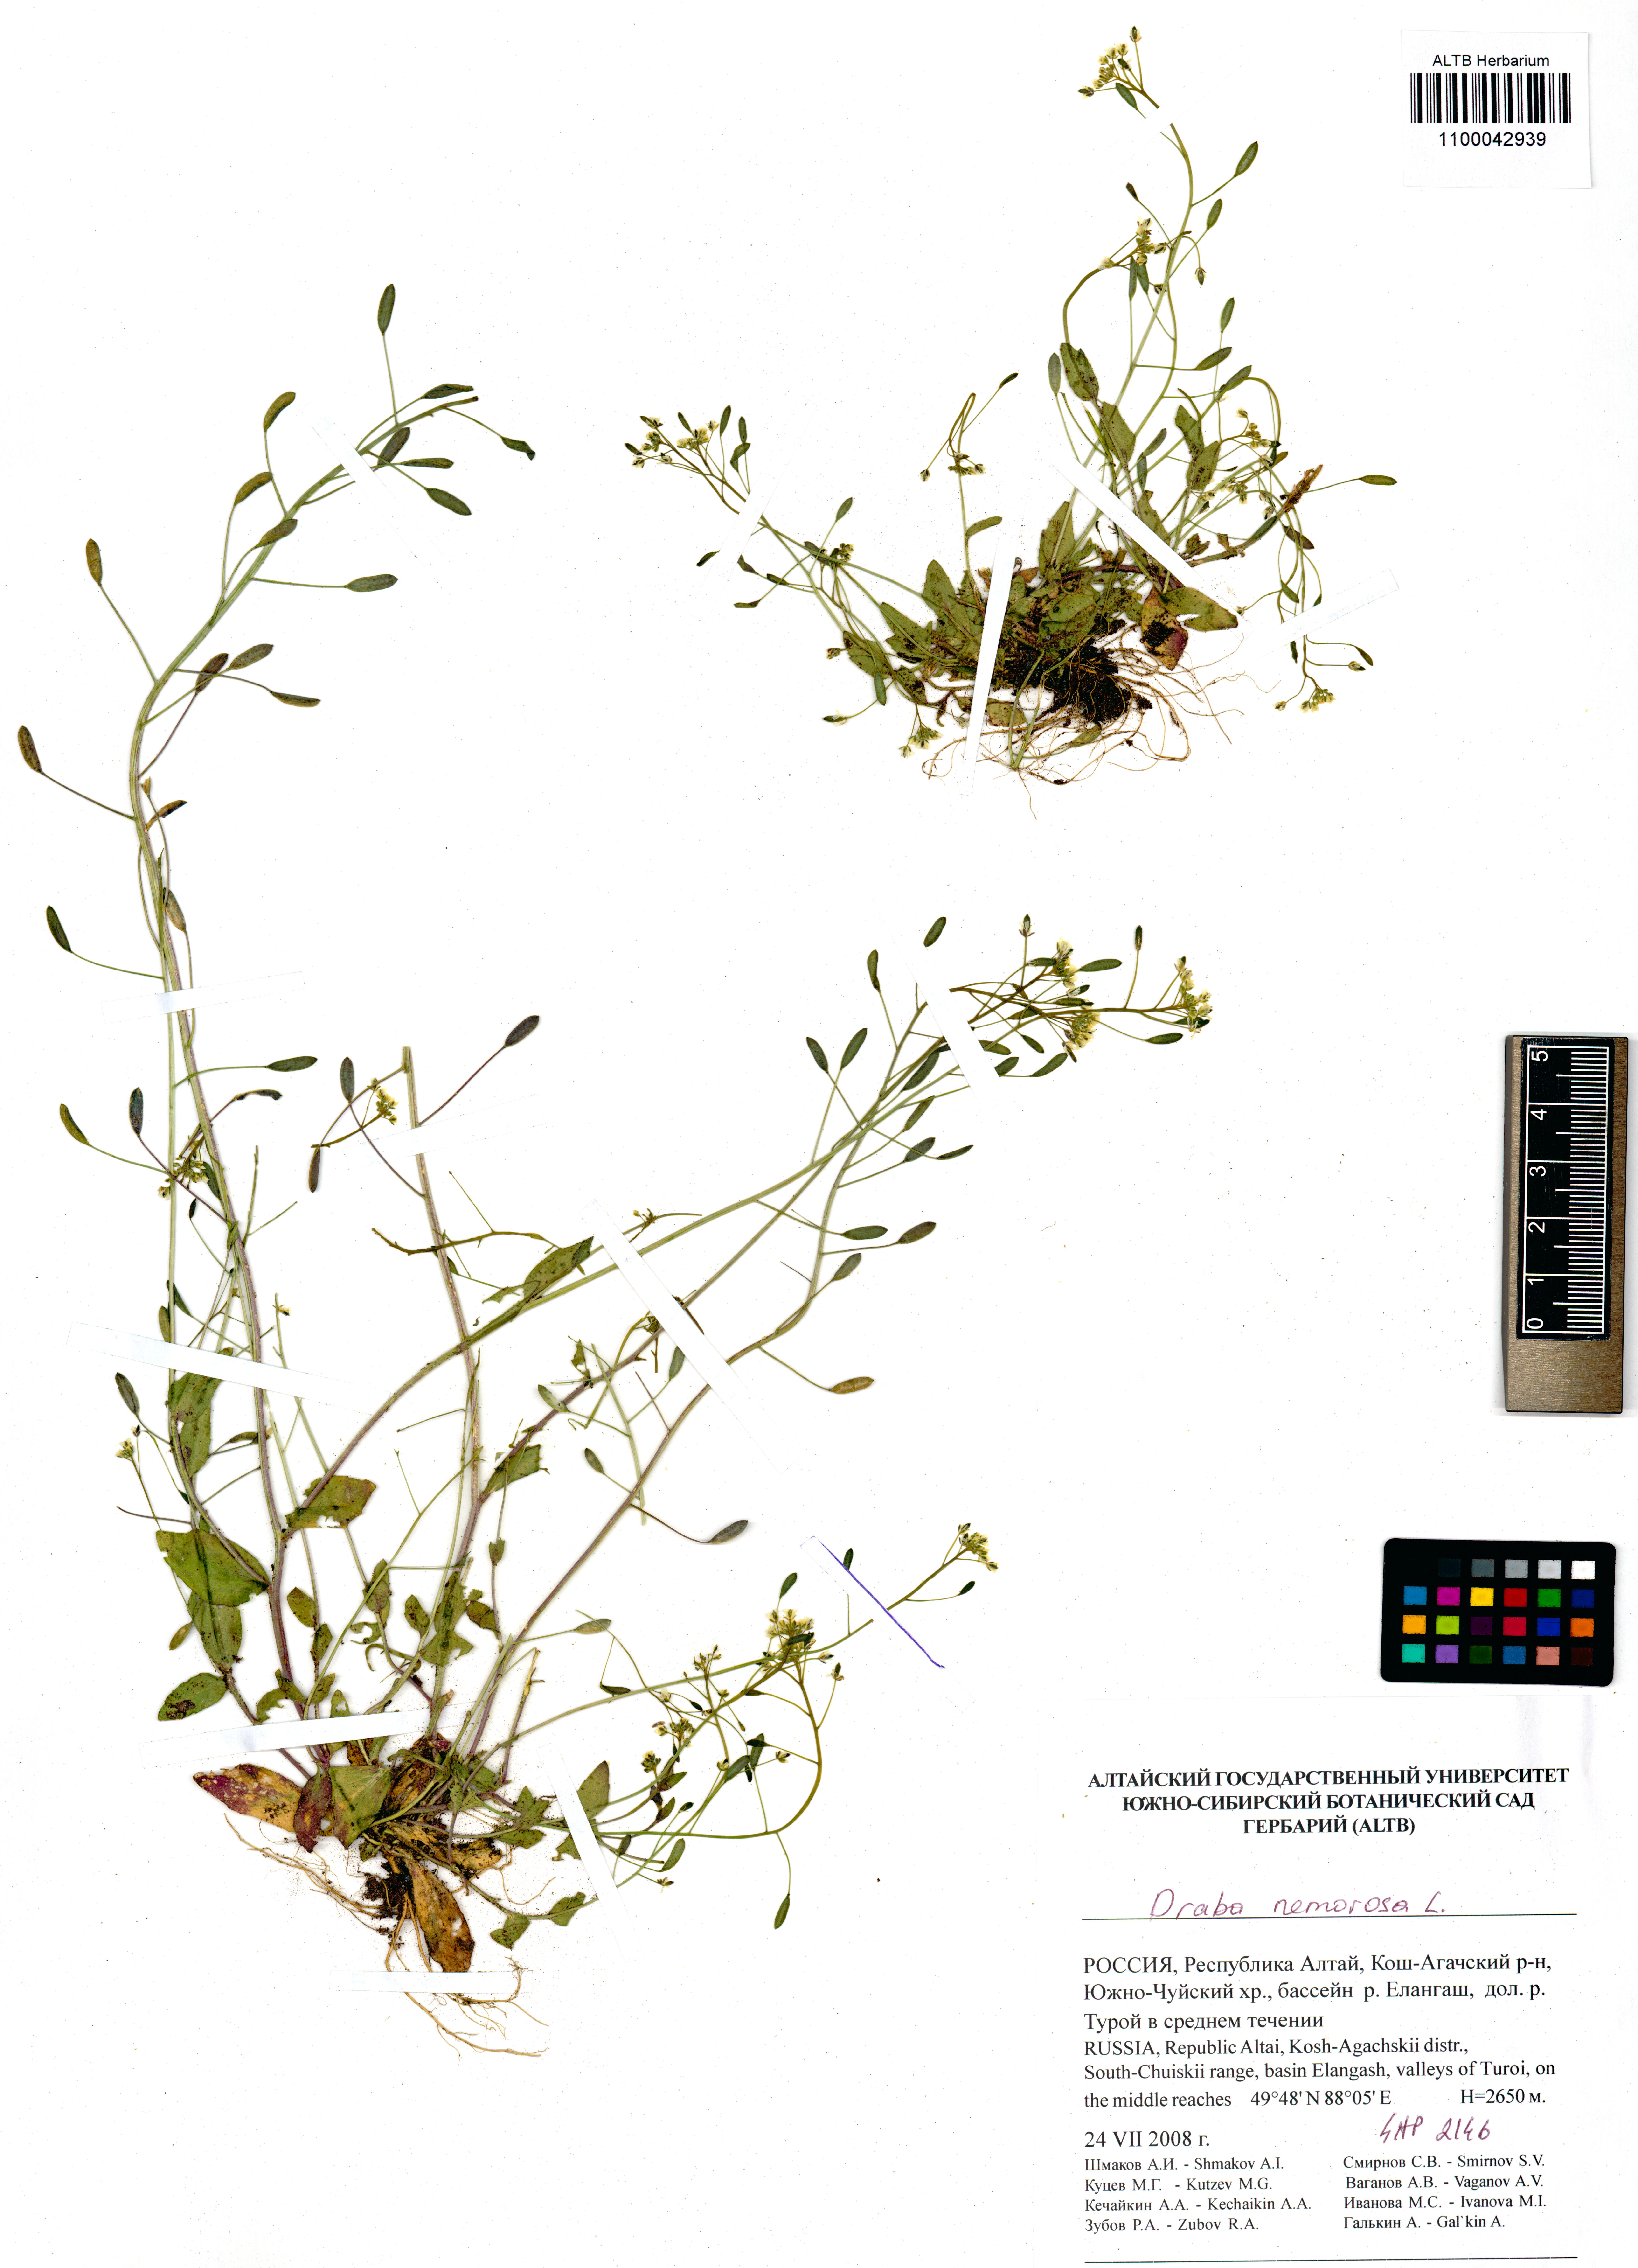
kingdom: Plantae
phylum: Tracheophyta
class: Magnoliopsida
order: Brassicales
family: Brassicaceae
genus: Draba
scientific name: Draba nemorosa
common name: Wood whitlow-grass
